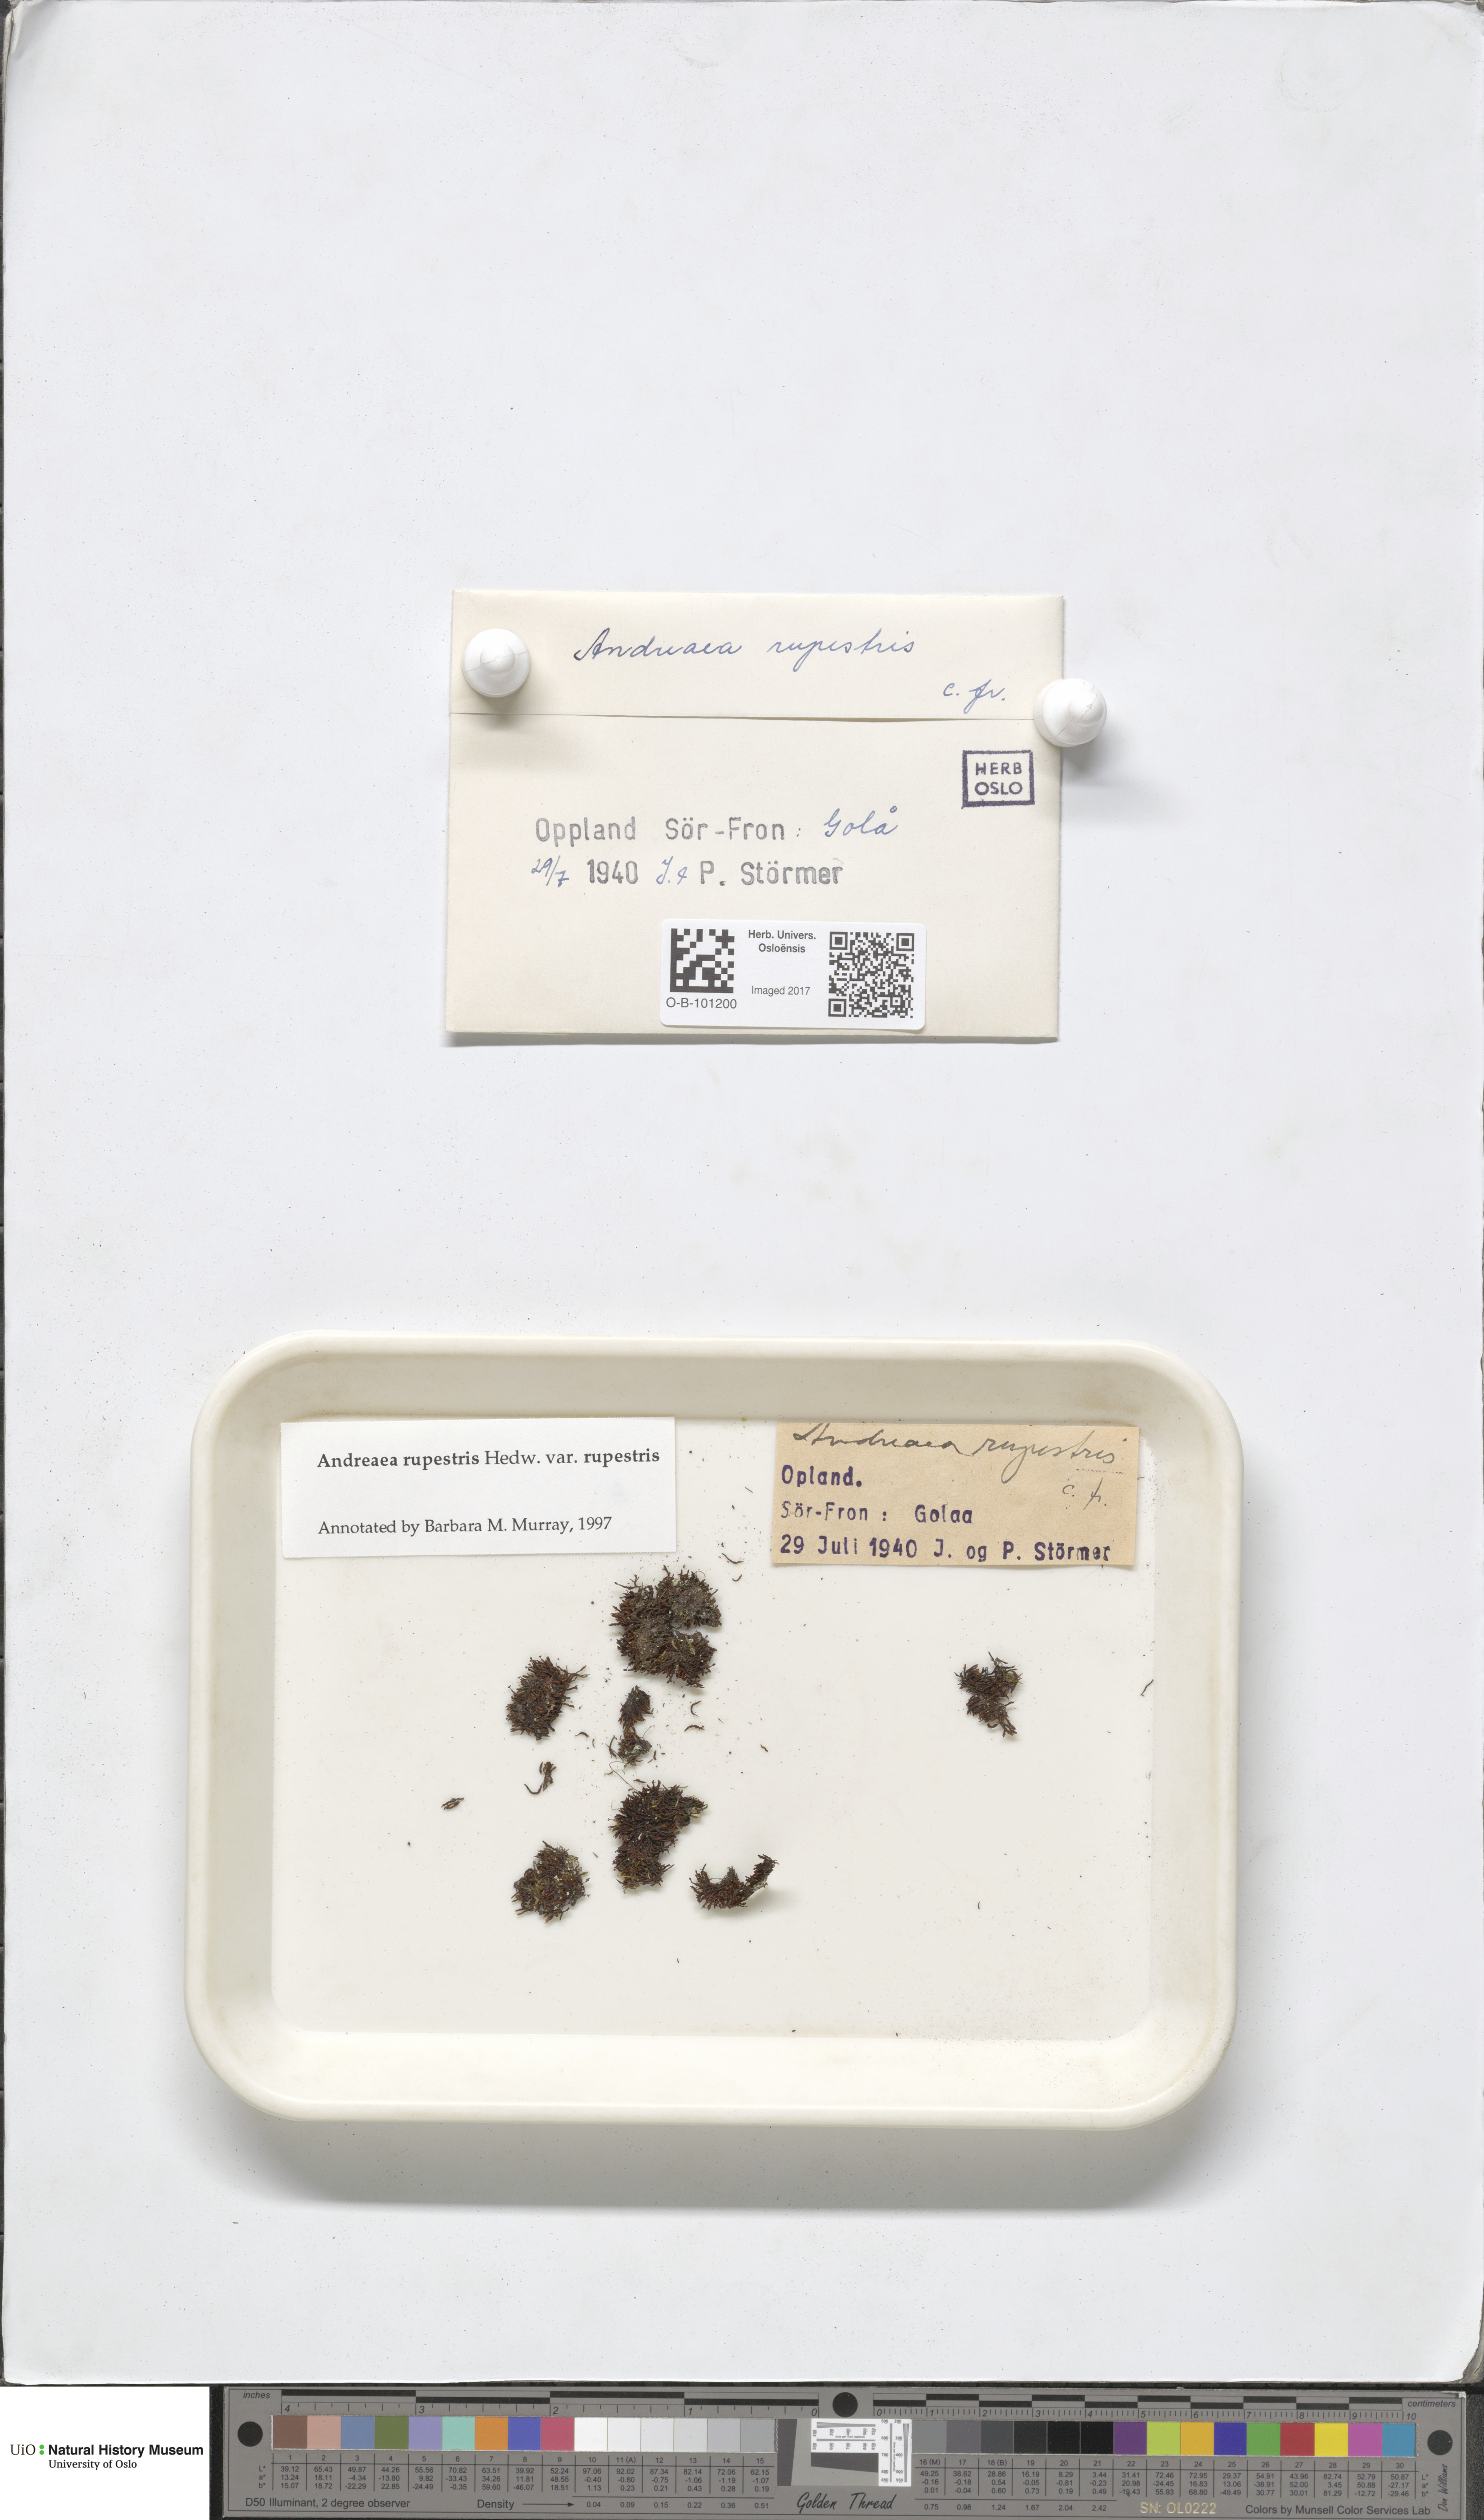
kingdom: Plantae
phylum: Bryophyta
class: Andreaeopsida
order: Andreaeales
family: Andreaeaceae
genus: Andreaea
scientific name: Andreaea rupestris
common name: Black rock moss
